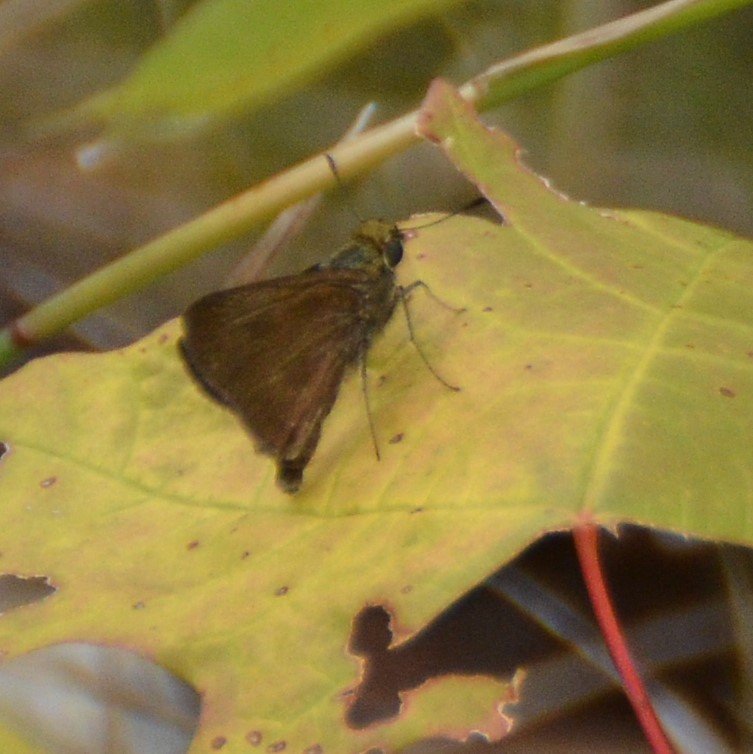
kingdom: Animalia
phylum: Arthropoda
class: Insecta
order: Lepidoptera
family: Hesperiidae
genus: Euphyes
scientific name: Euphyes vestris
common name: Dun Skipper
